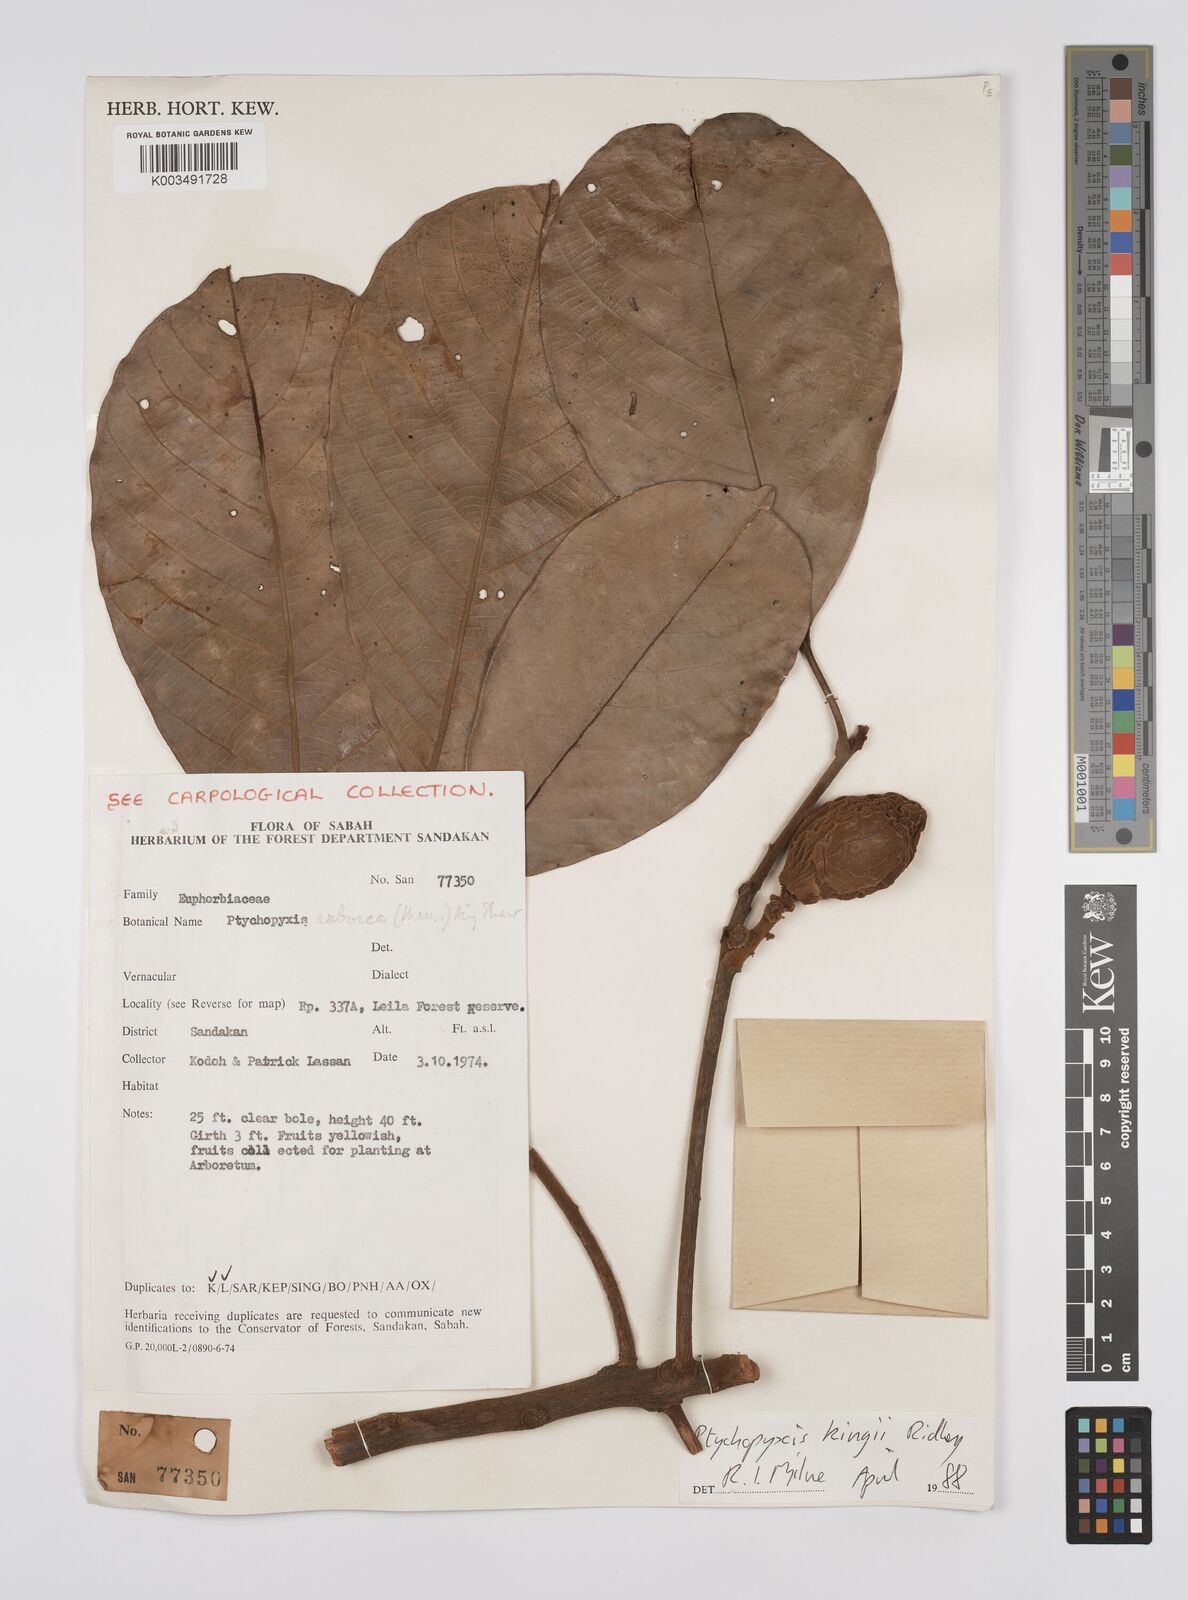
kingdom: Plantae
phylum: Tracheophyta
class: Magnoliopsida
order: Malpighiales
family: Euphorbiaceae
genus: Ptychopyxis
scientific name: Ptychopyxis kingii
